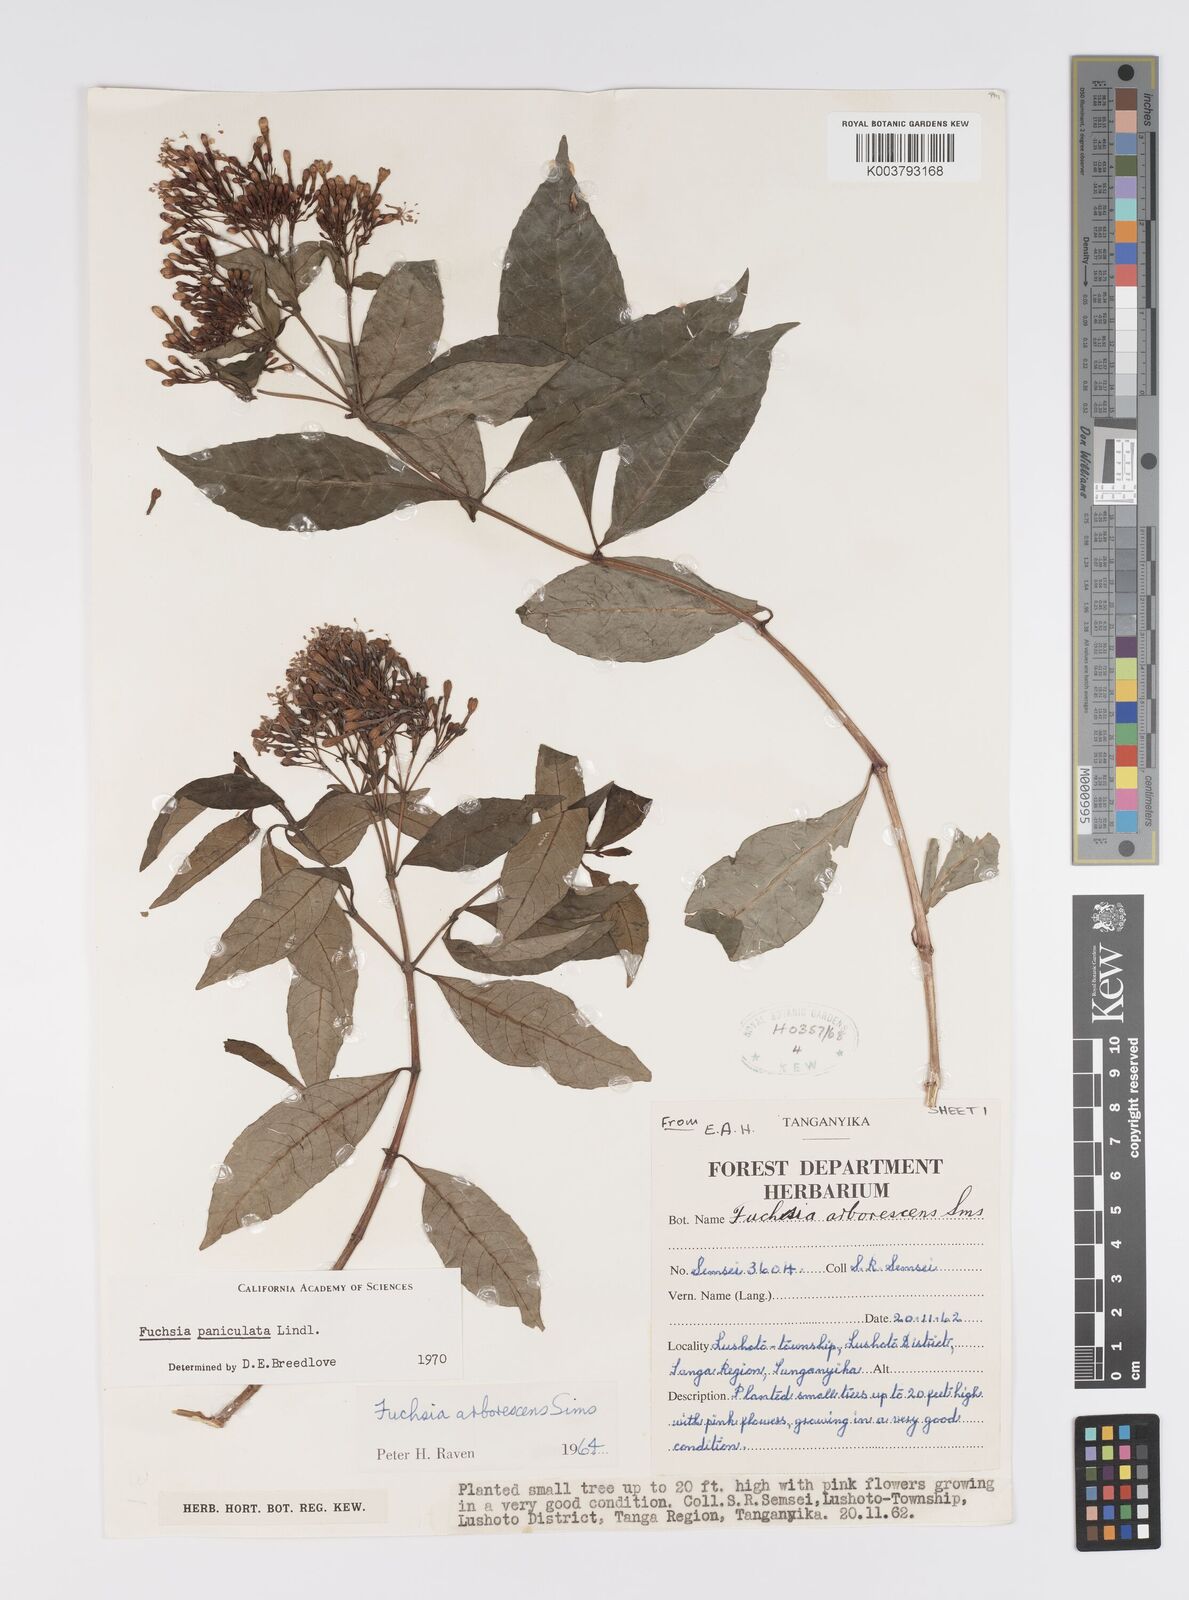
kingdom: Plantae
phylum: Tracheophyta
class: Magnoliopsida
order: Myrtales
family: Onagraceae
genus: Fuchsia
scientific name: Fuchsia paniculata
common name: Shrubby fuchsia
